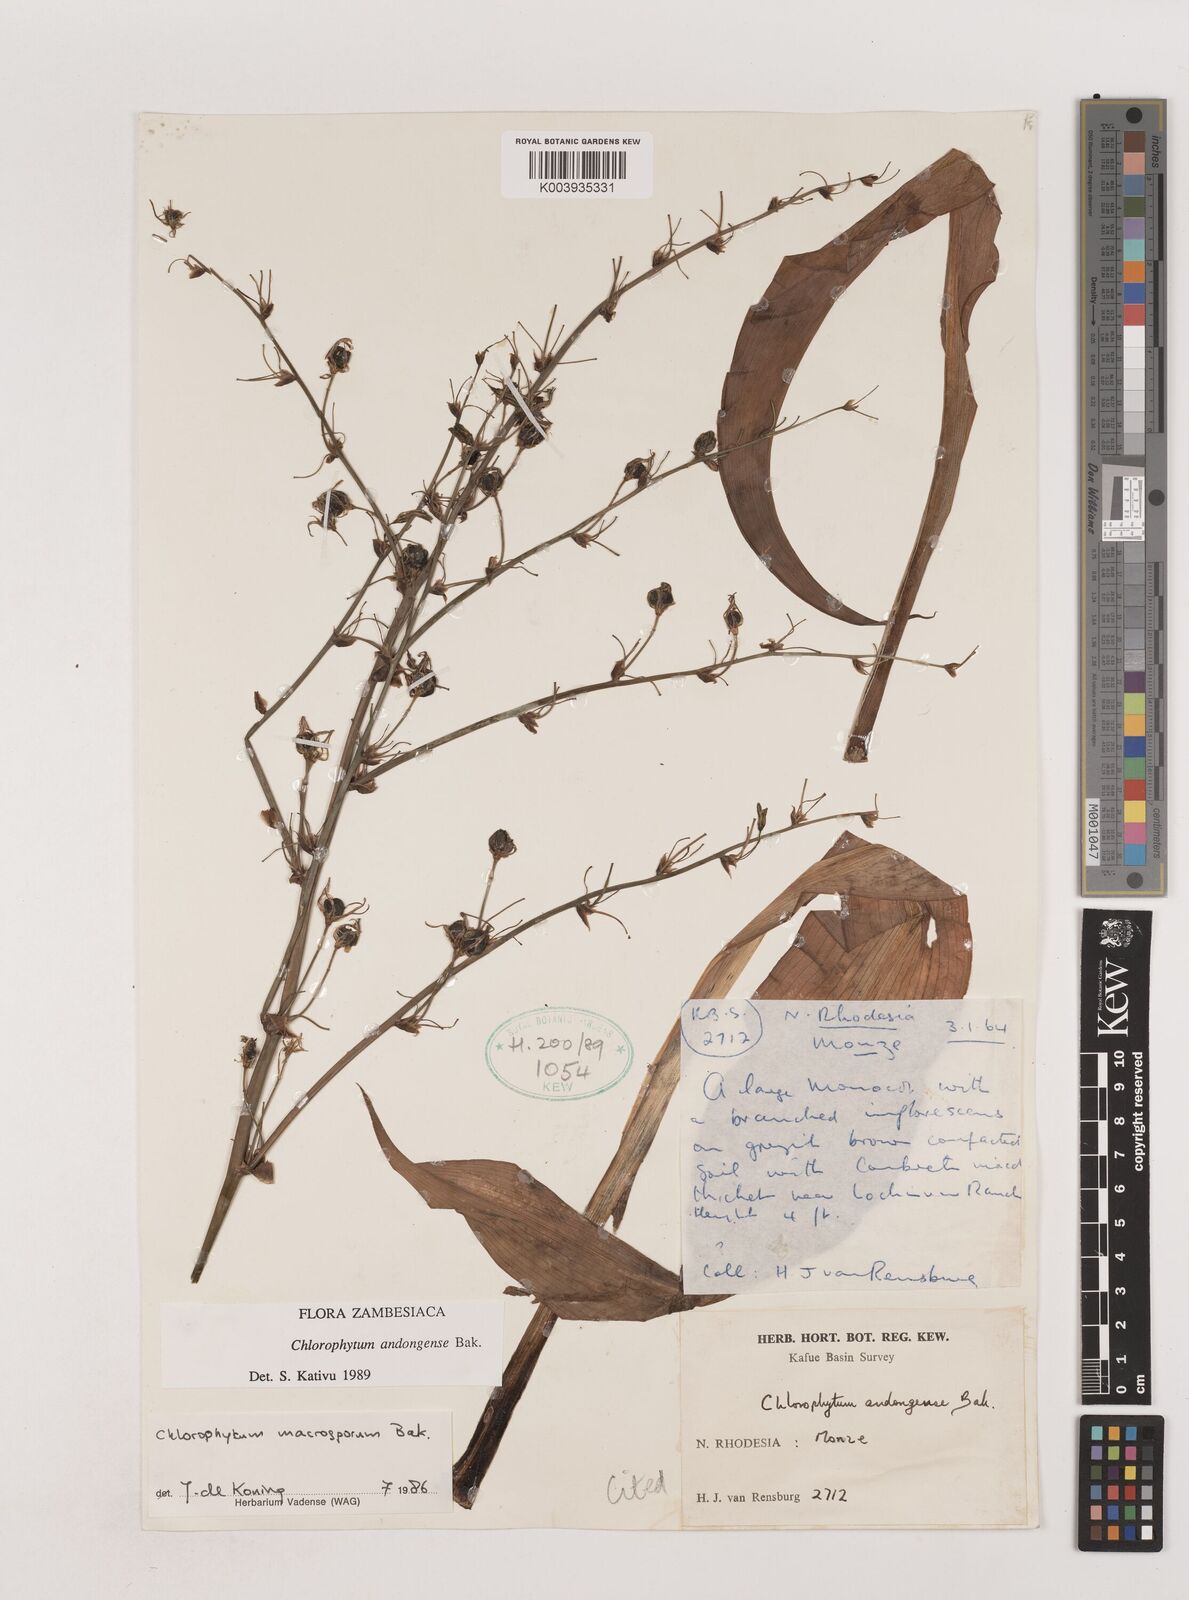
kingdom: Plantae
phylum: Tracheophyta
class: Liliopsida
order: Asparagales
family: Asparagaceae
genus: Chlorophytum
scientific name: Chlorophytum andongense
